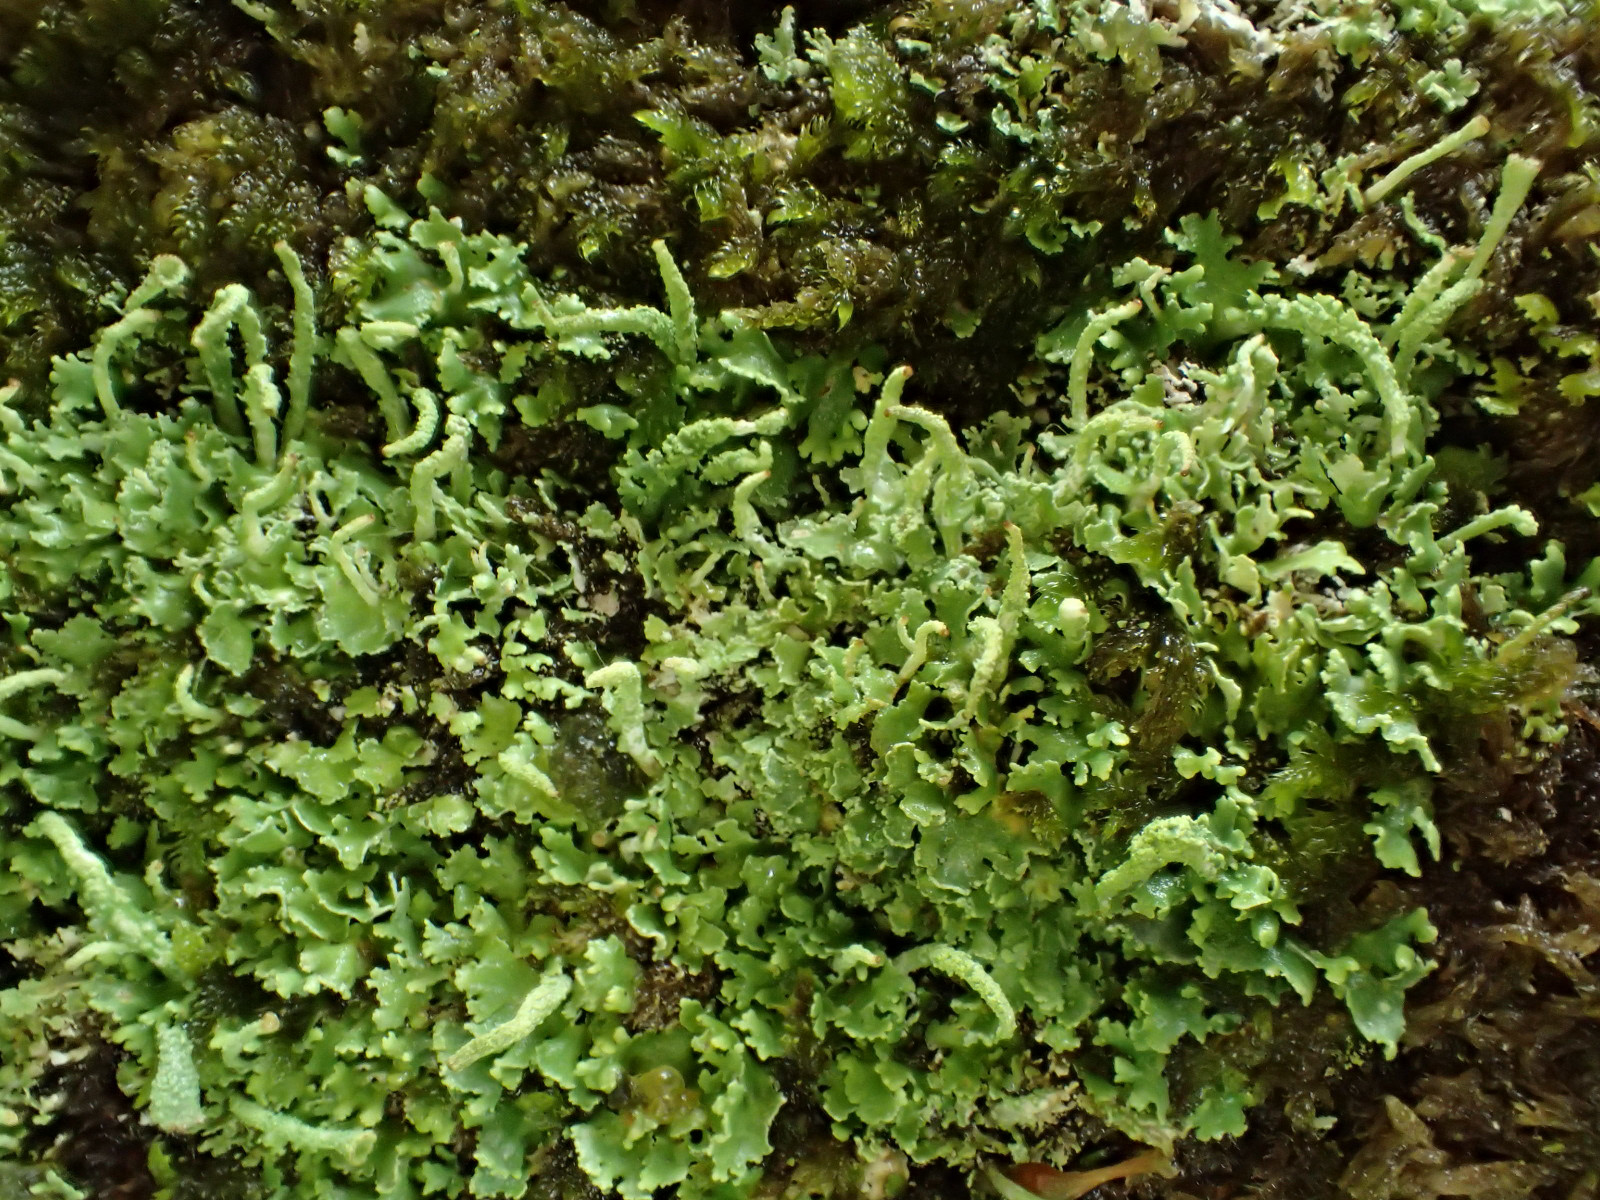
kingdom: Fungi
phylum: Ascomycota
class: Lecanoromycetes
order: Lecanorales
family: Cladoniaceae
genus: Cladonia
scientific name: Cladonia coniocraea
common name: træfods-bægerlav
